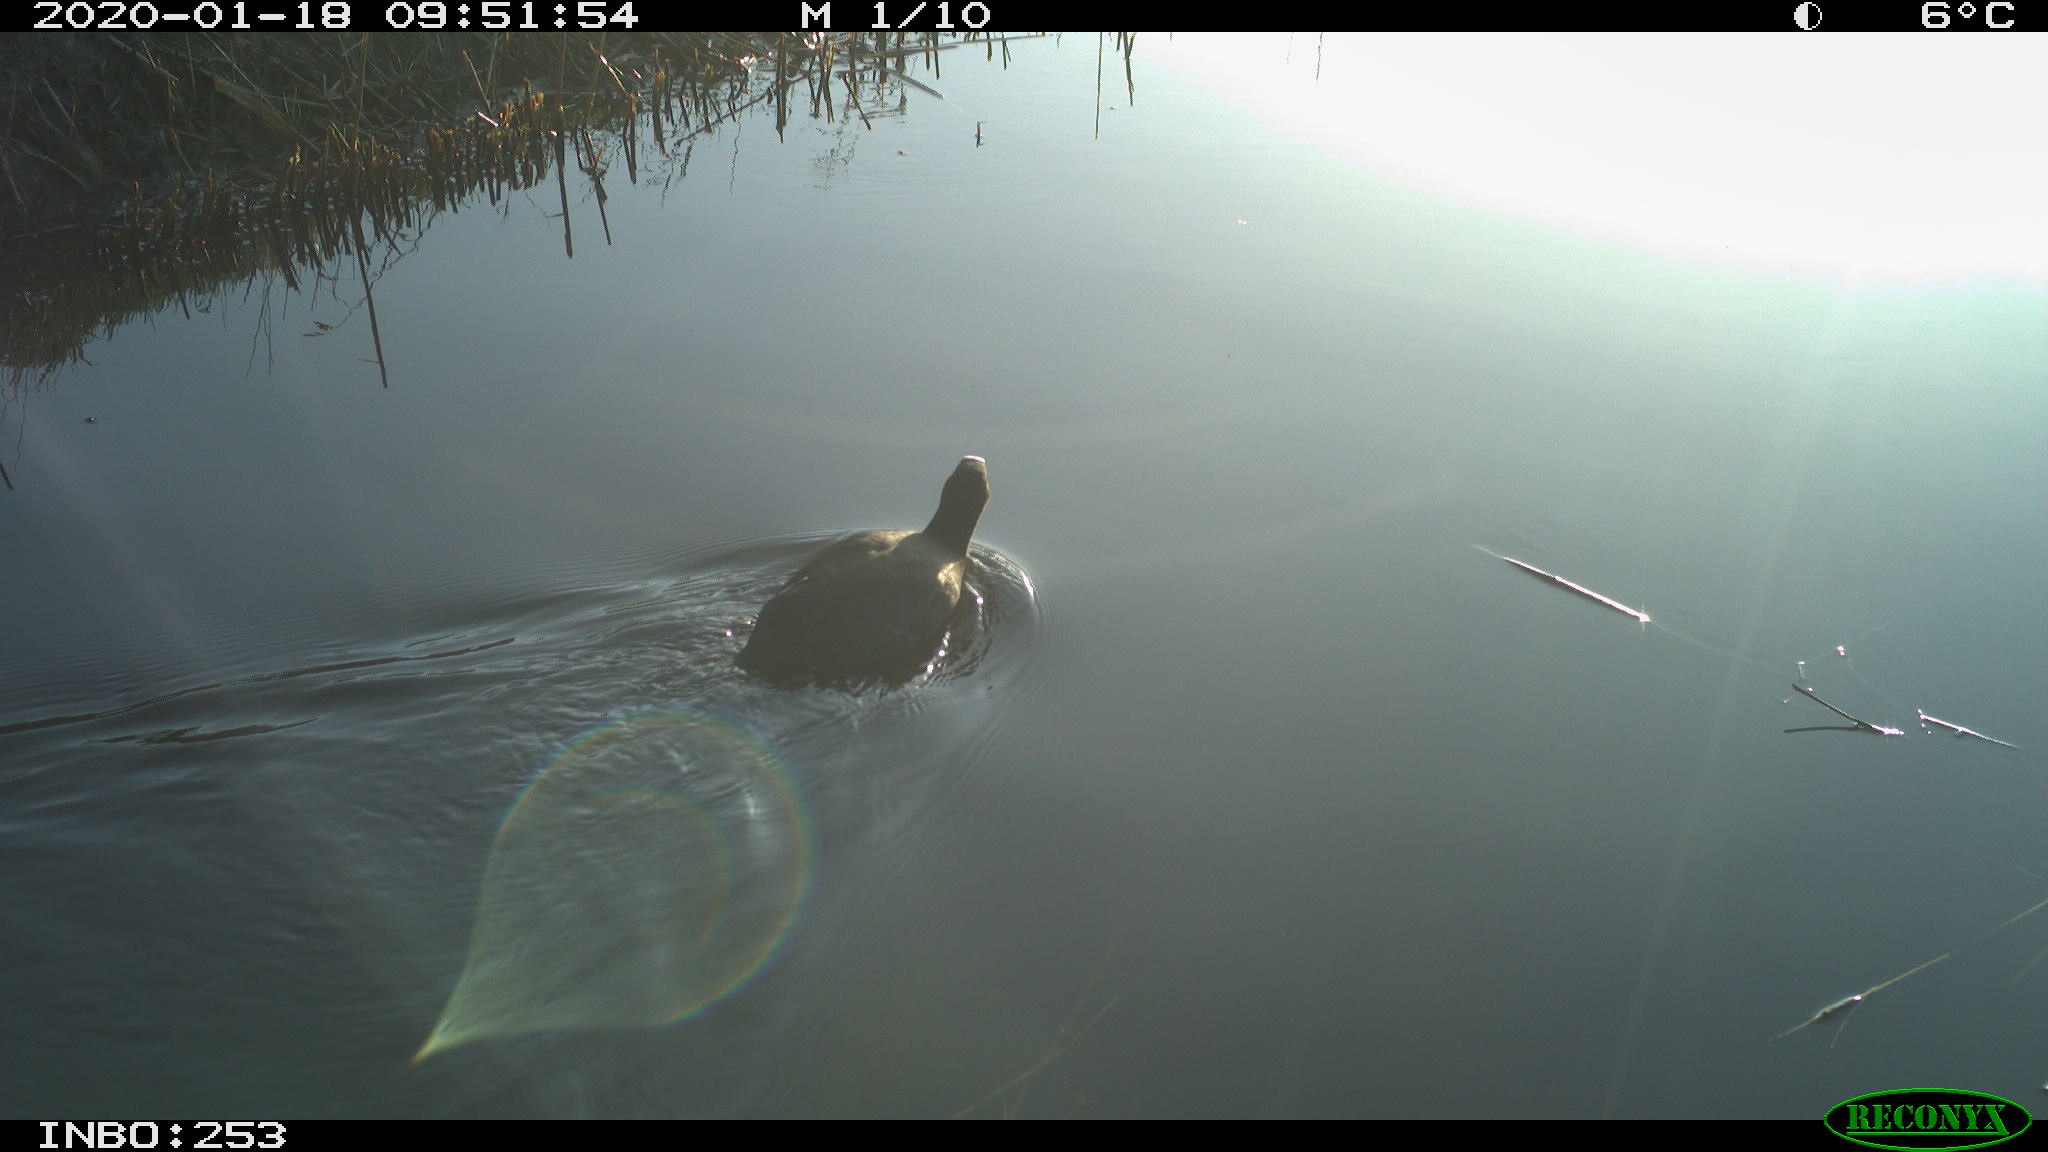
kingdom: Animalia
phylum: Chordata
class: Aves
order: Gruiformes
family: Rallidae
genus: Fulica
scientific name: Fulica atra
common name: Eurasian coot
